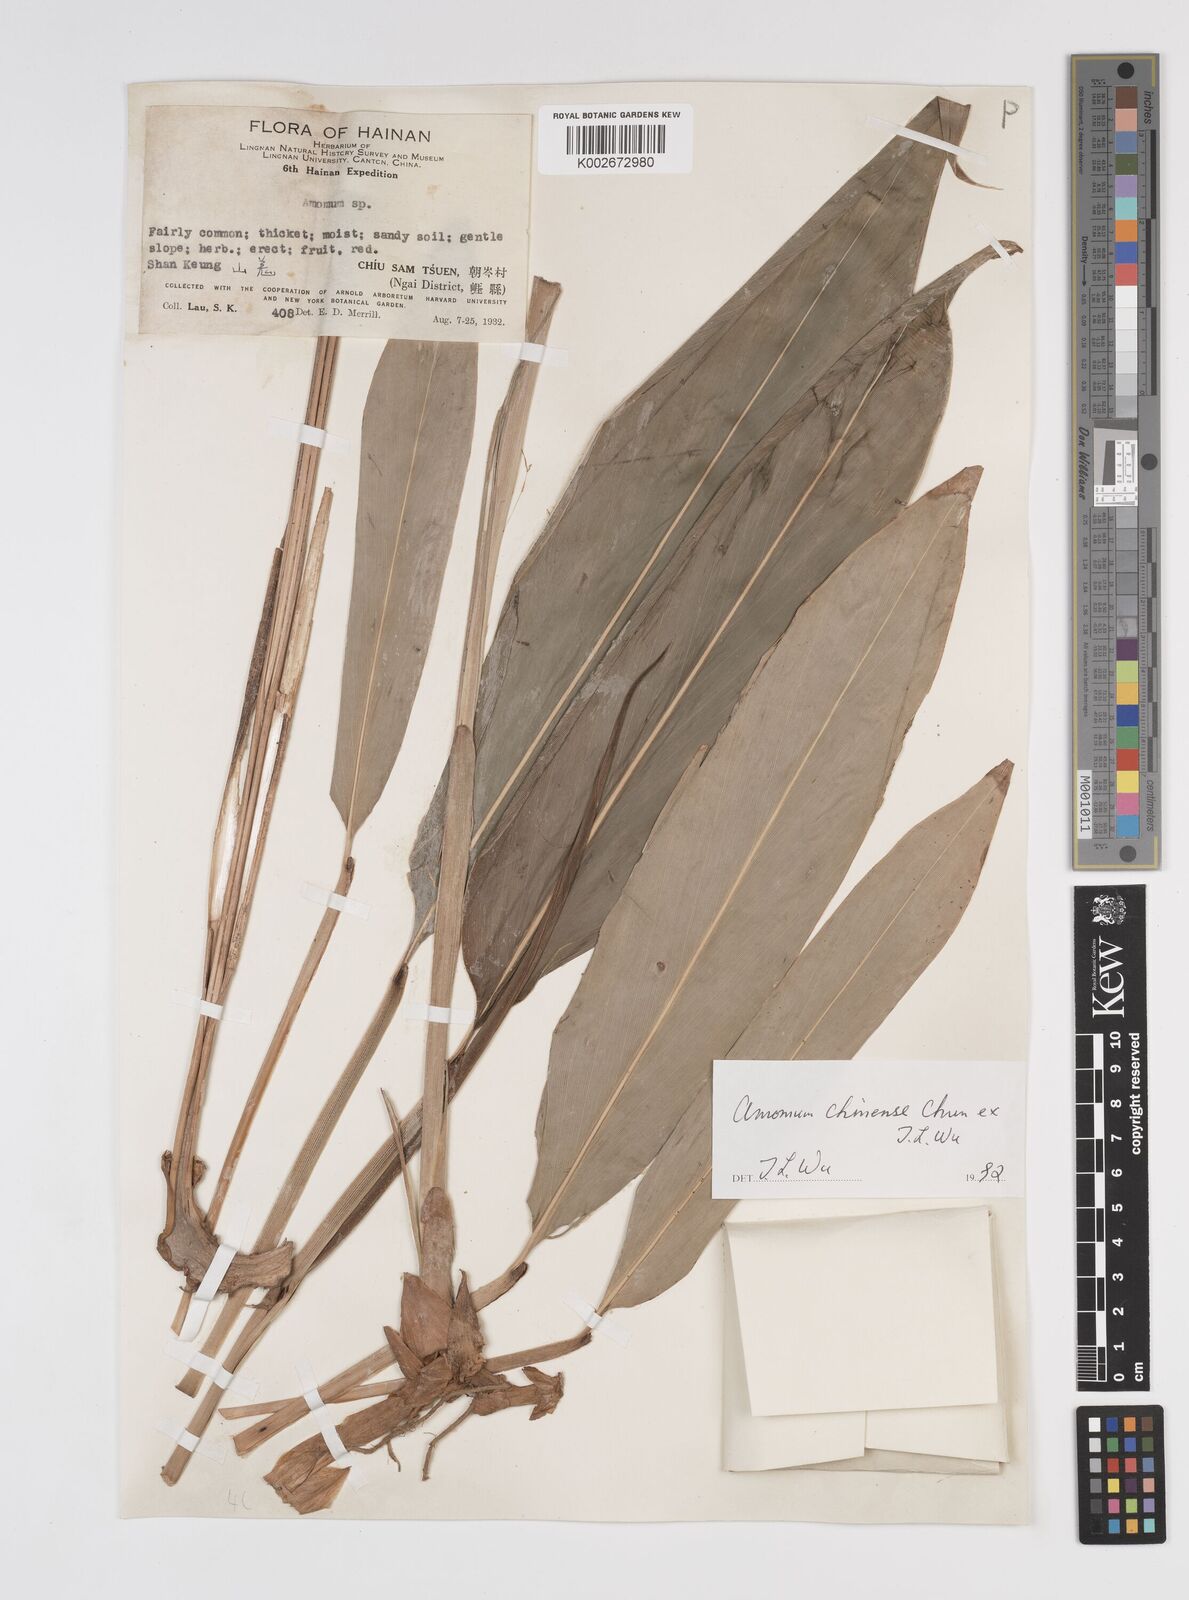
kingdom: Plantae
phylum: Tracheophyta
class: Liliopsida
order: Zingiberales
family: Zingiberaceae
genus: Meistera
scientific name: Meistera chinensis
